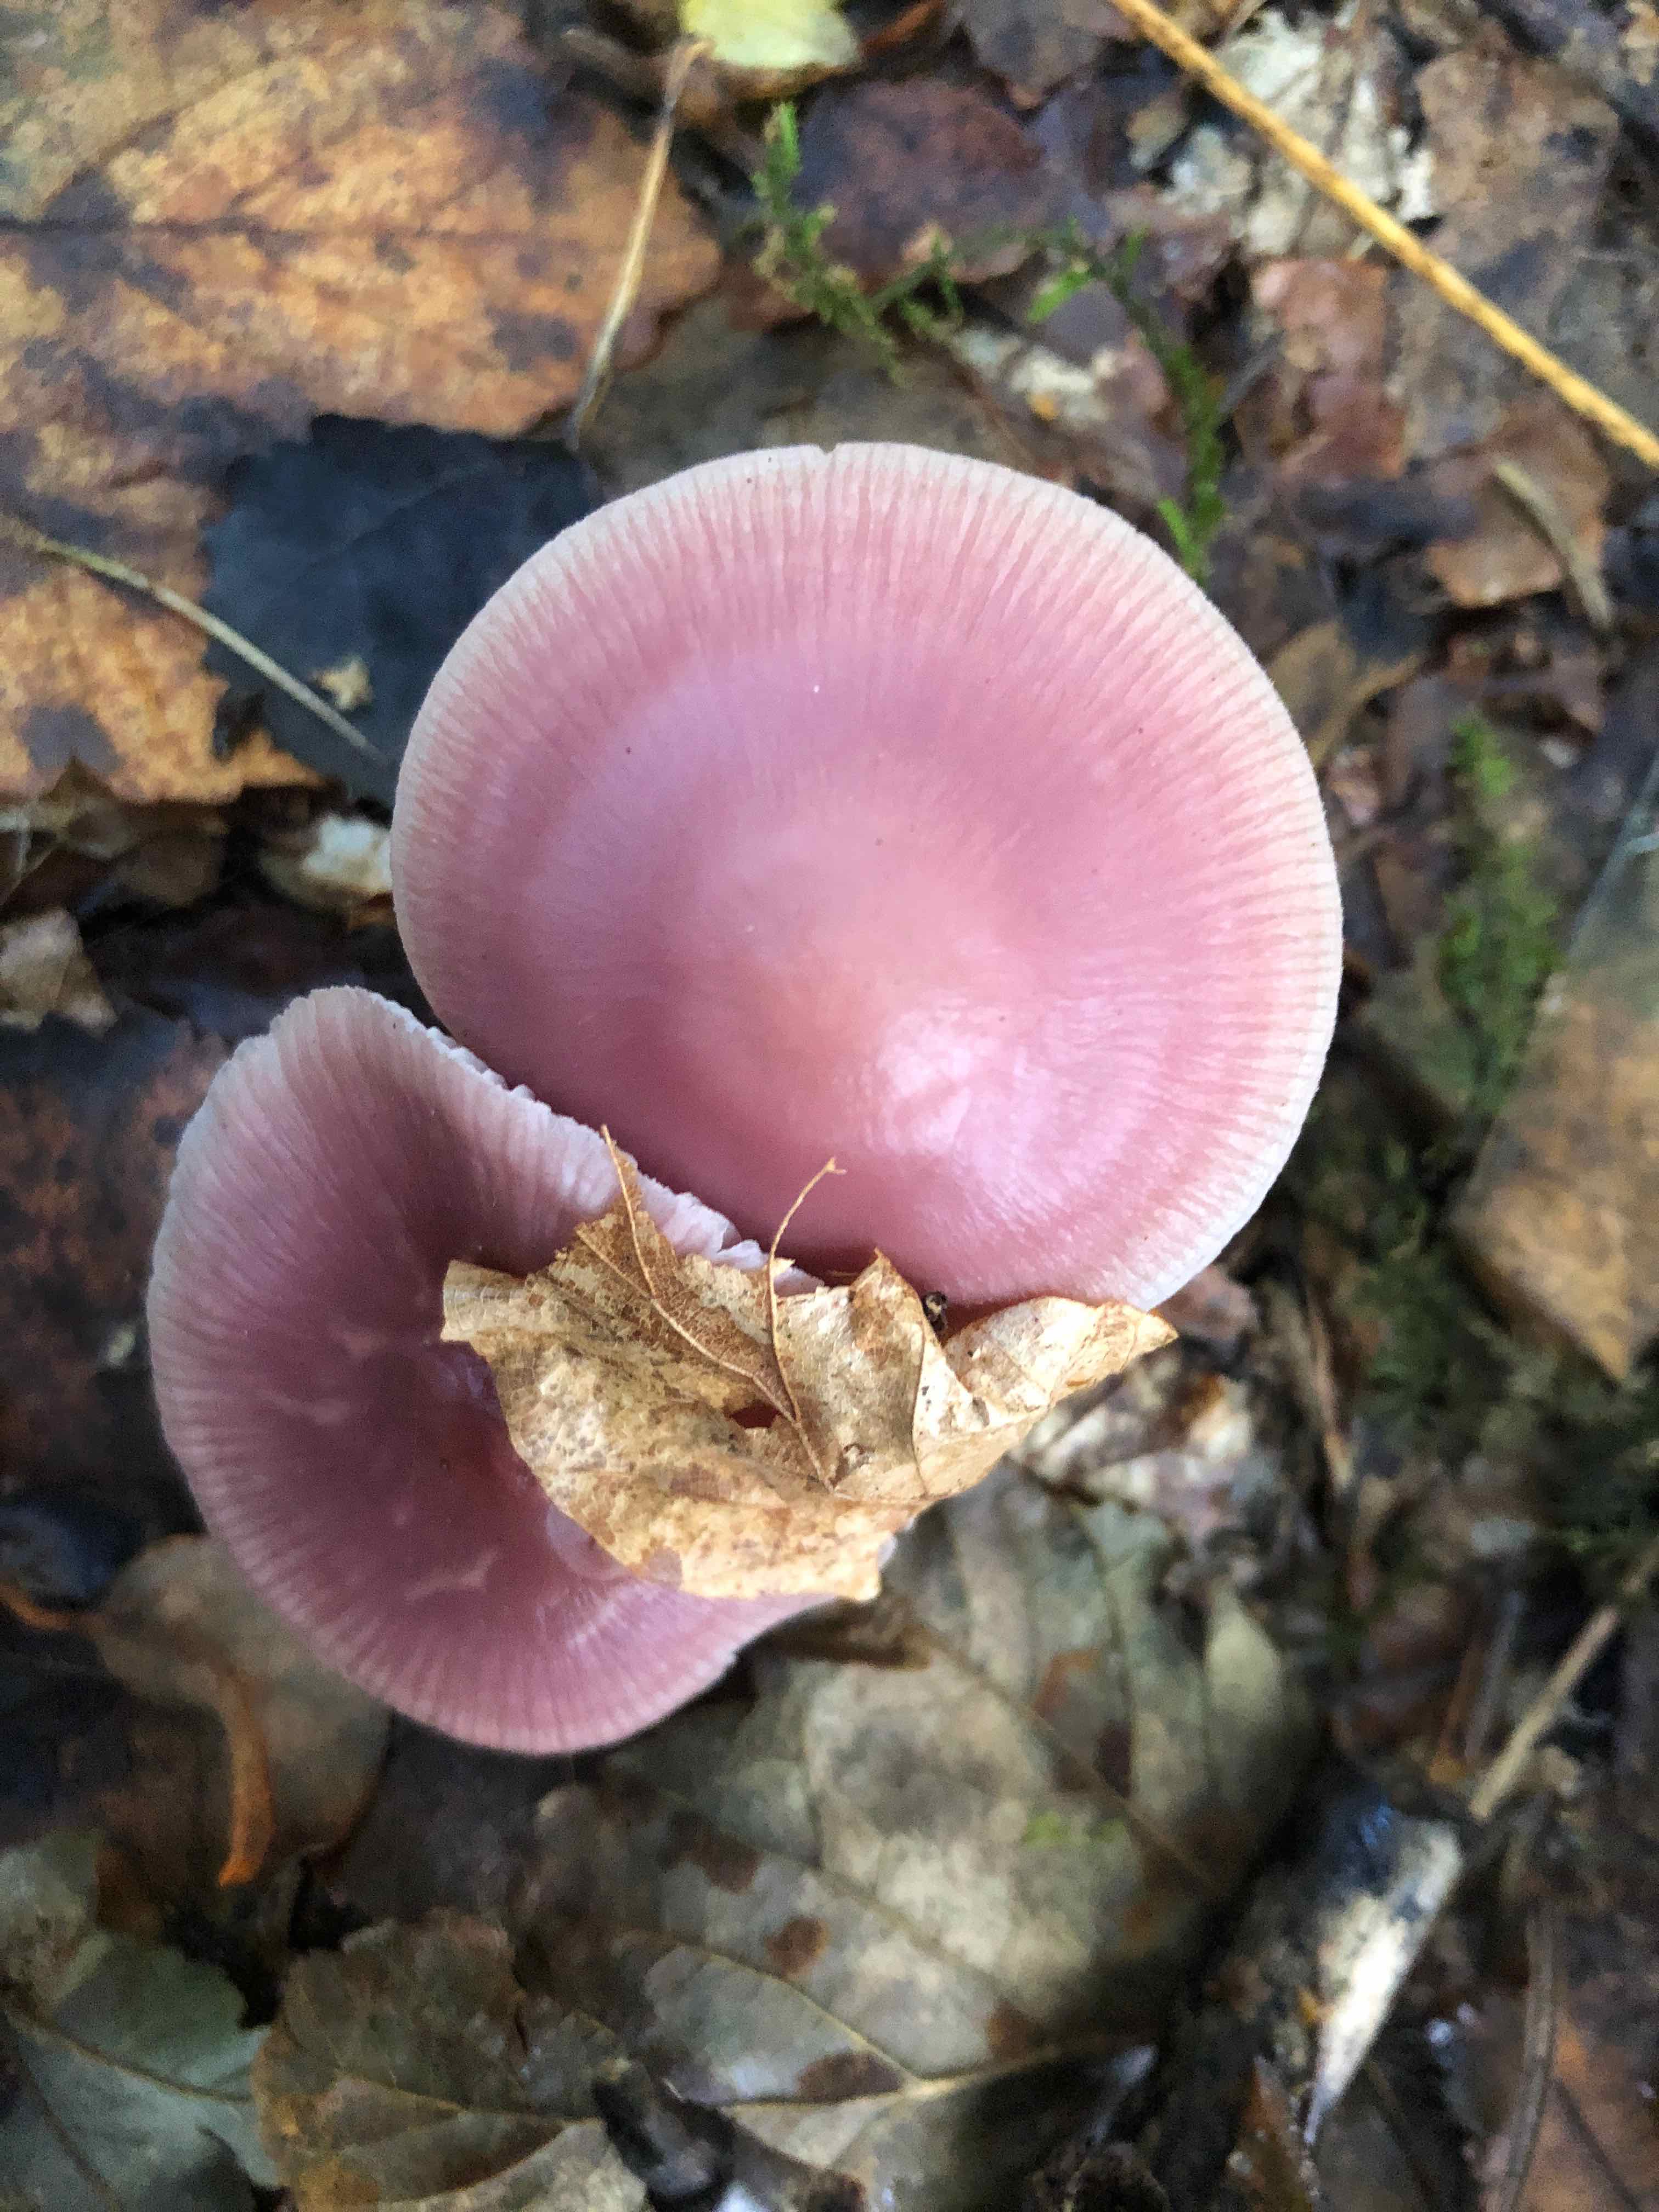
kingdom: Fungi
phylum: Basidiomycota
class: Agaricomycetes
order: Agaricales
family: Mycenaceae
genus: Mycena
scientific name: Mycena rosea
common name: rosa huesvamp
